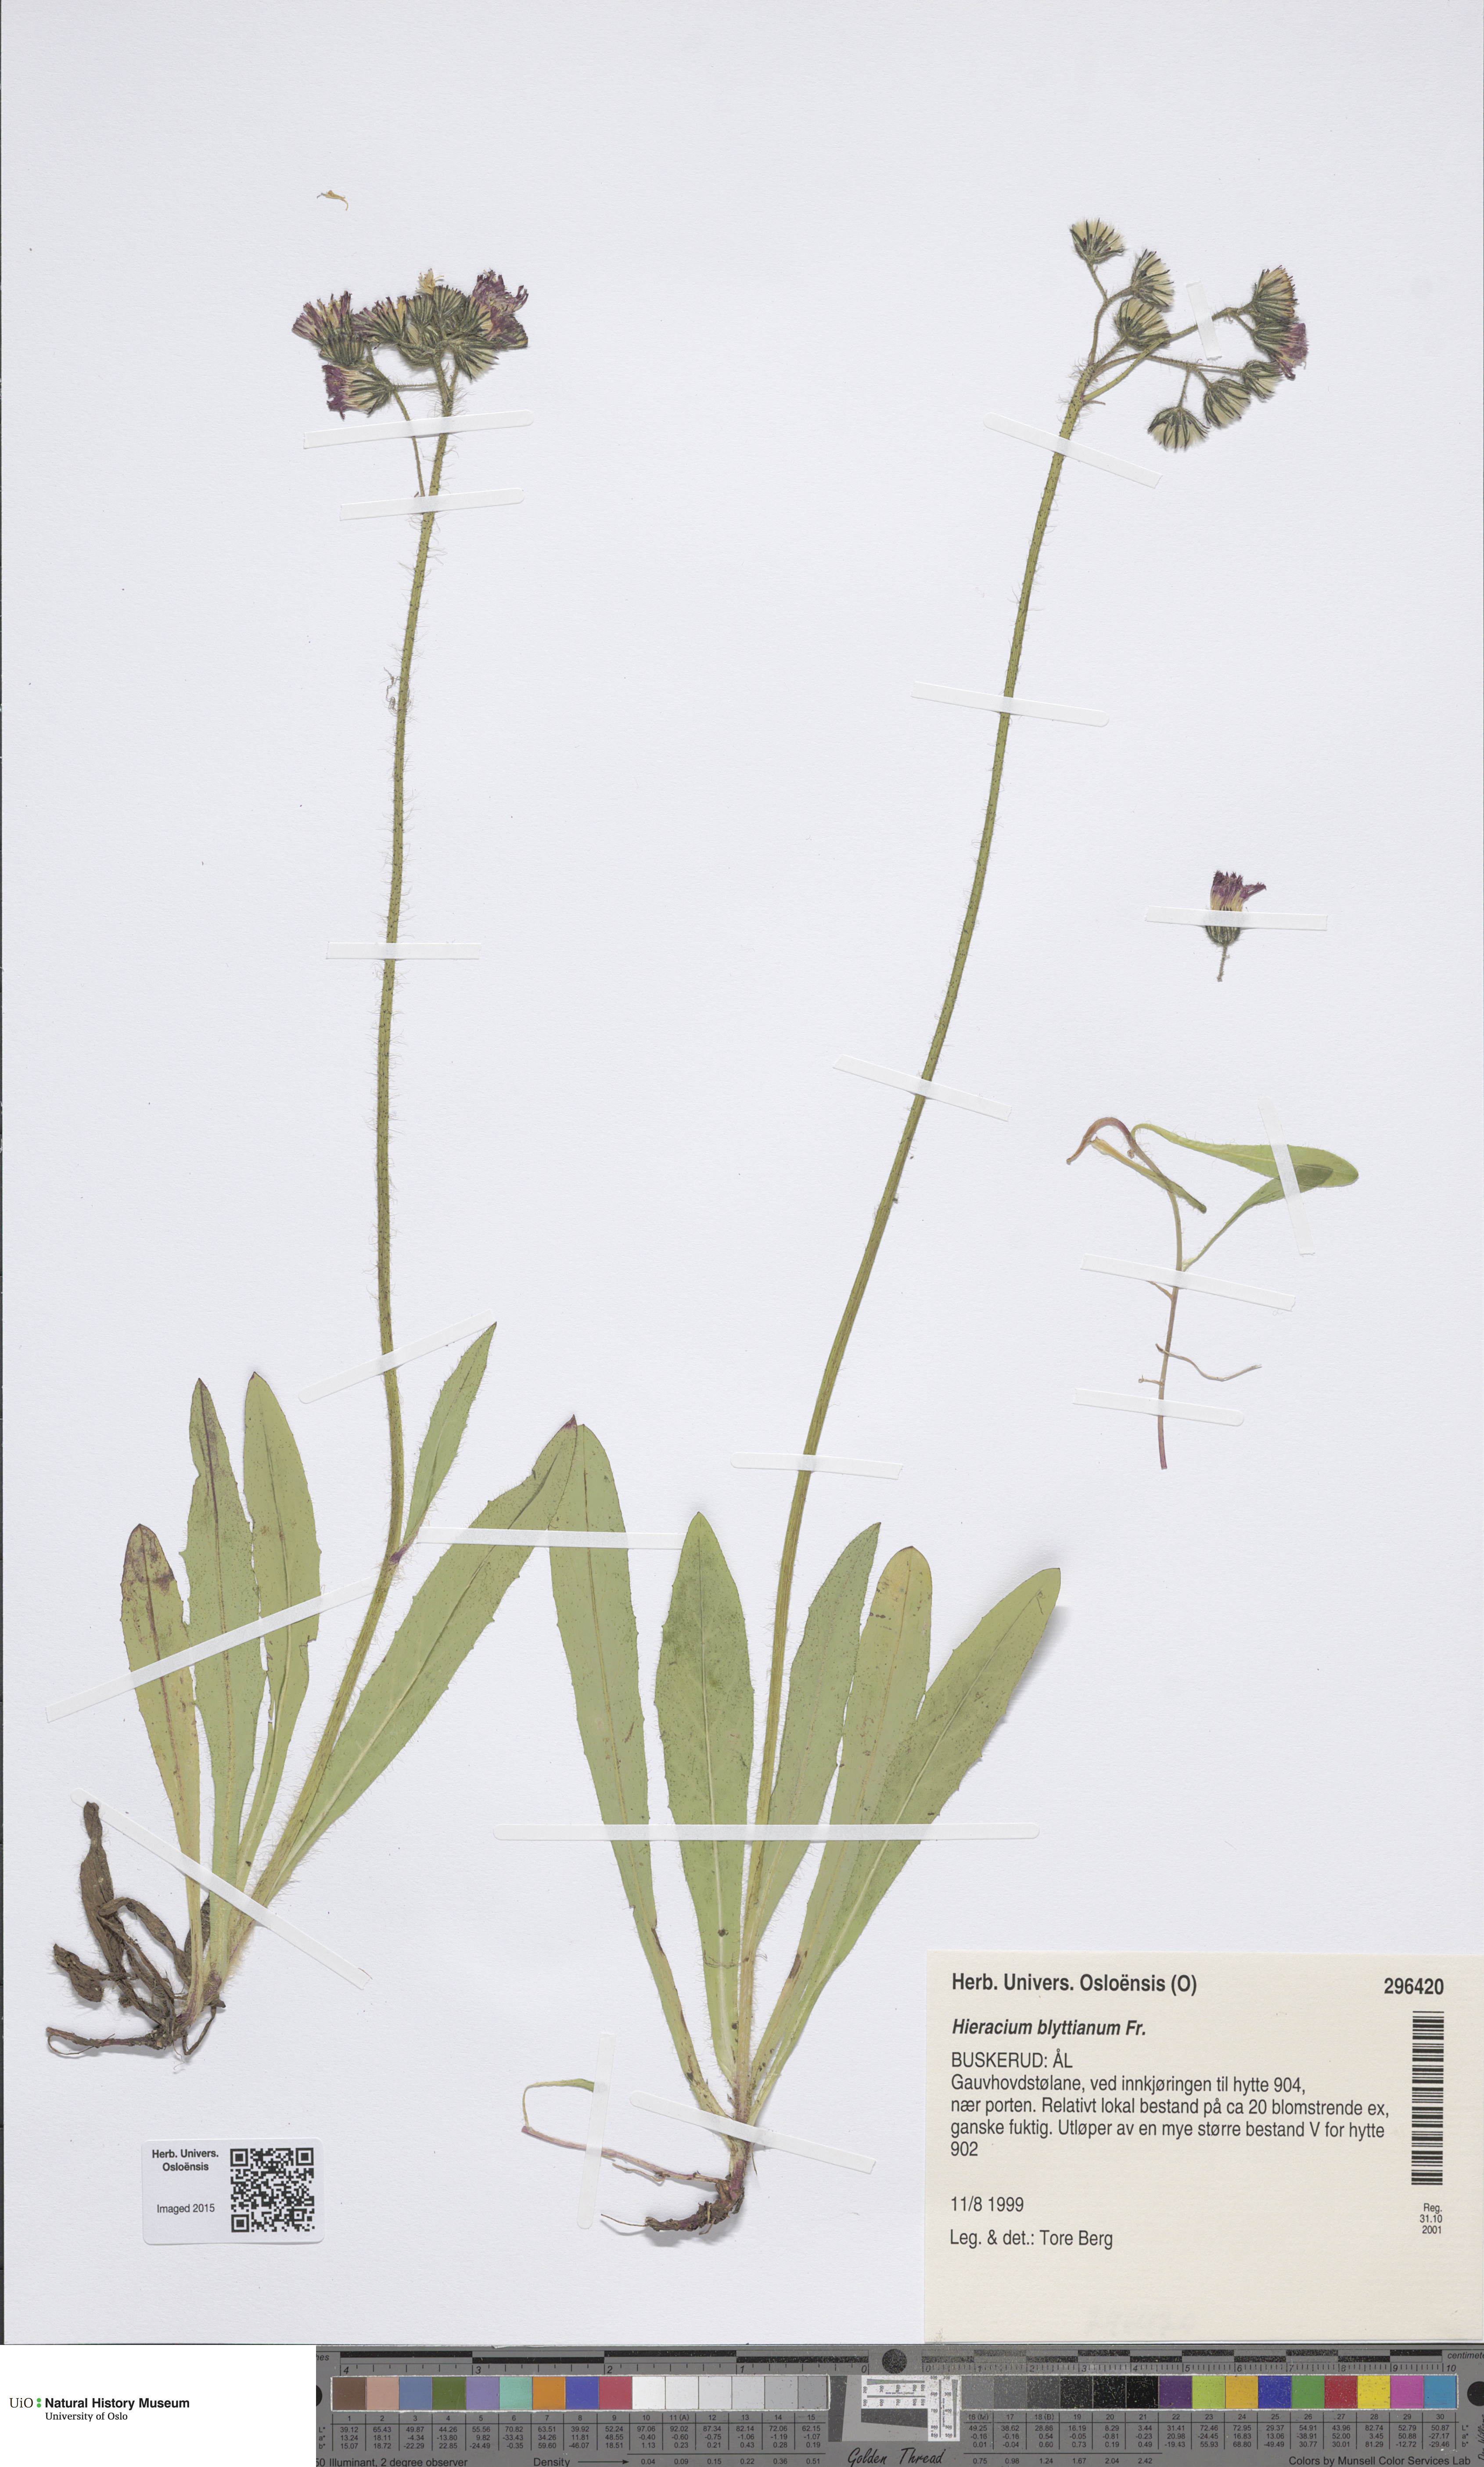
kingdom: Plantae
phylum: Tracheophyta
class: Magnoliopsida
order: Asterales
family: Asteraceae
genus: Pilosella
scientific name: Pilosella blyttiana
